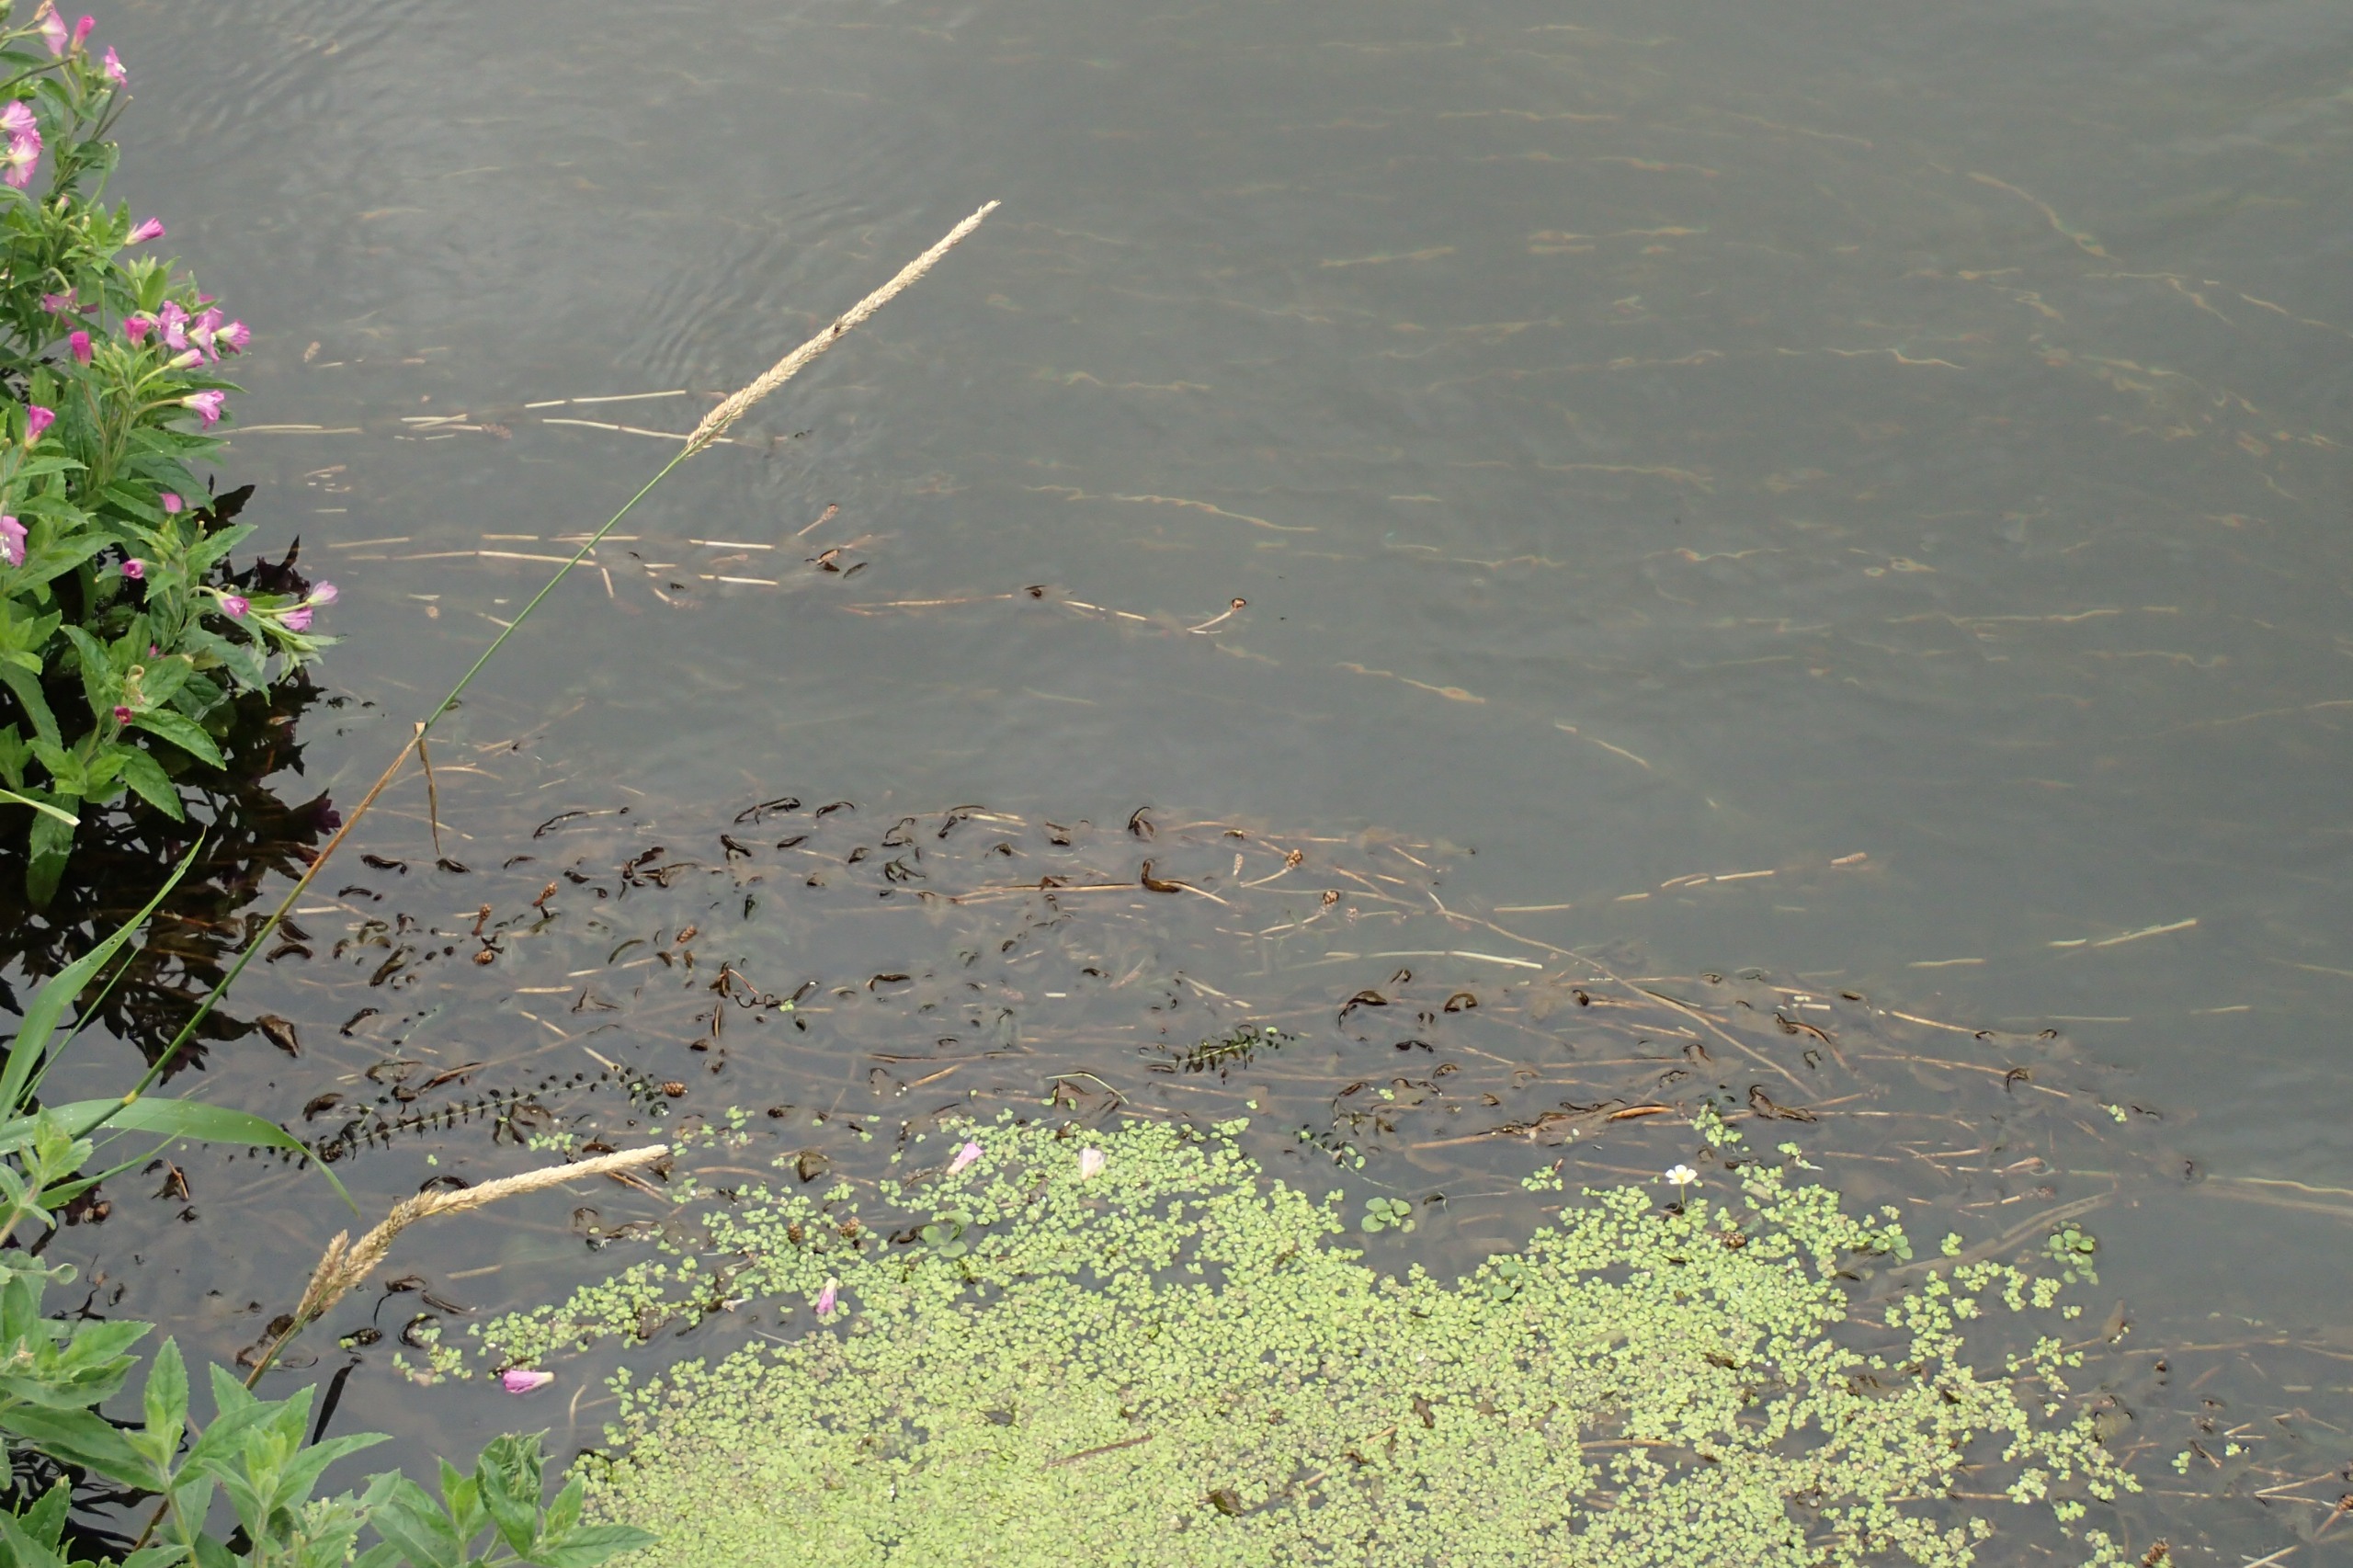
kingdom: Plantae
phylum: Tracheophyta
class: Liliopsida
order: Alismatales
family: Potamogetonaceae
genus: Potamogeton
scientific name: Potamogeton perfoliatus
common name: Hjertebladet vandaks
